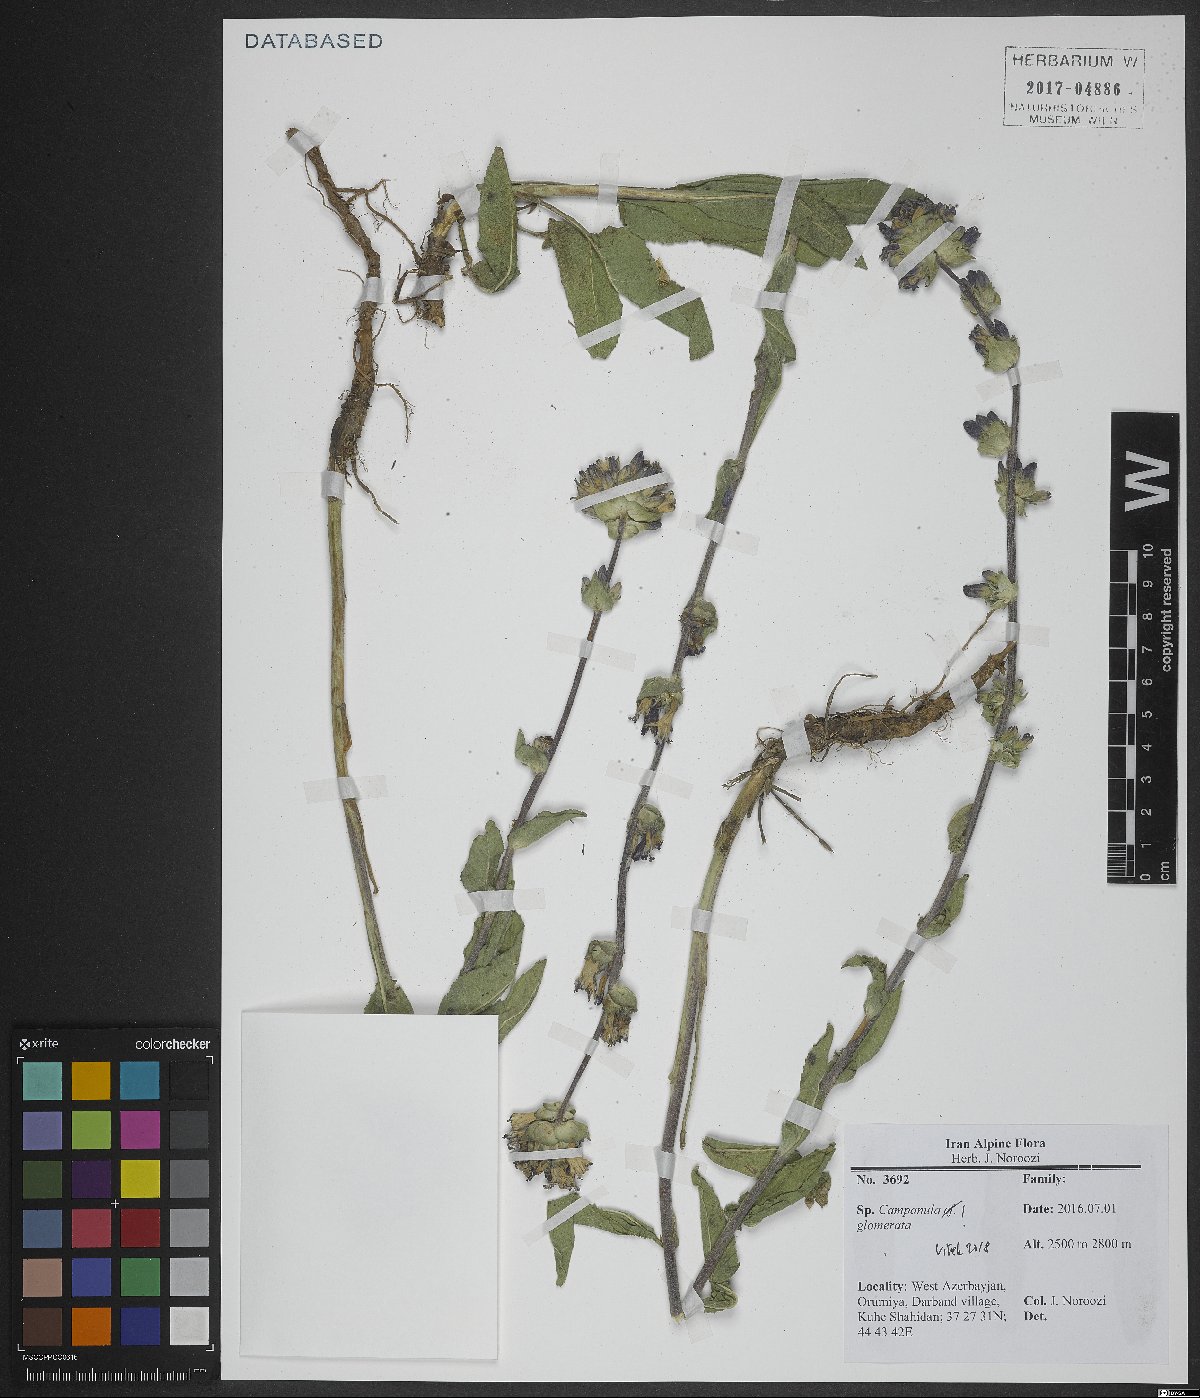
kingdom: Plantae
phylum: Tracheophyta
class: Magnoliopsida
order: Asterales
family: Campanulaceae
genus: Campanula
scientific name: Campanula glomerata
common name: Clustered bellflower
